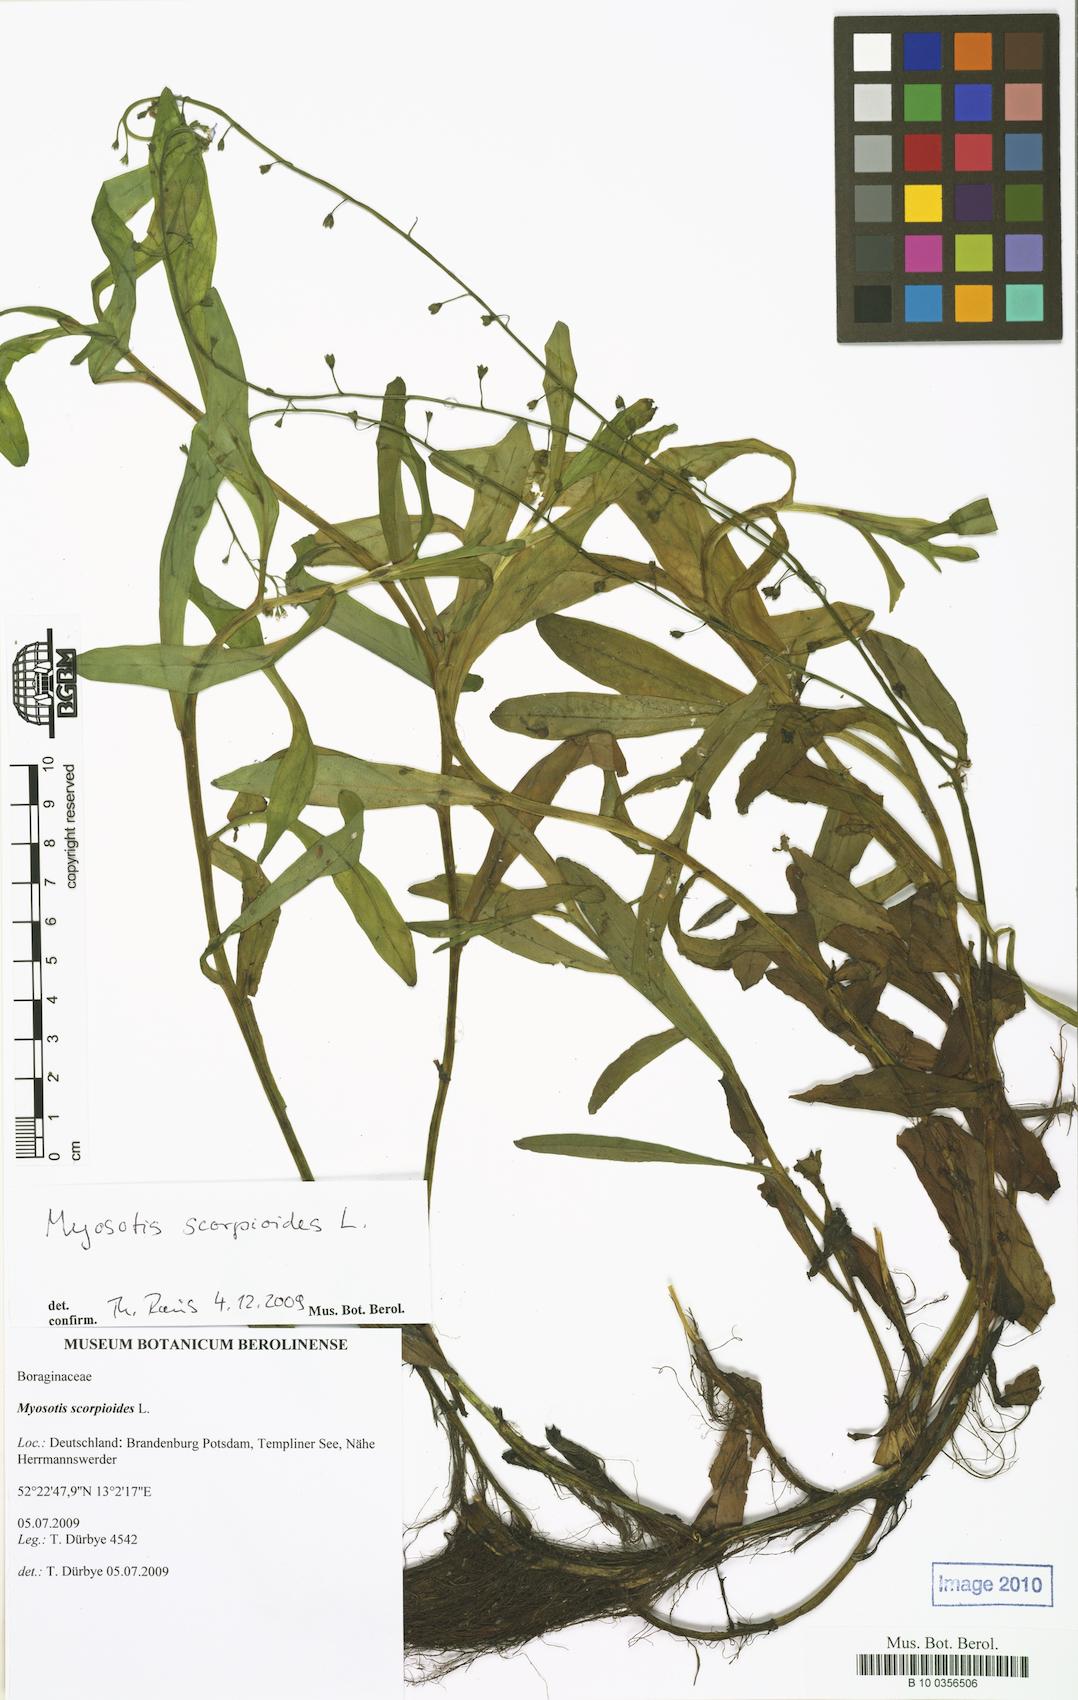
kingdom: Plantae
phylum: Tracheophyta
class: Magnoliopsida
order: Boraginales
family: Boraginaceae
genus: Myosotis
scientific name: Myosotis scorpioides
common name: Water forget-me-not
